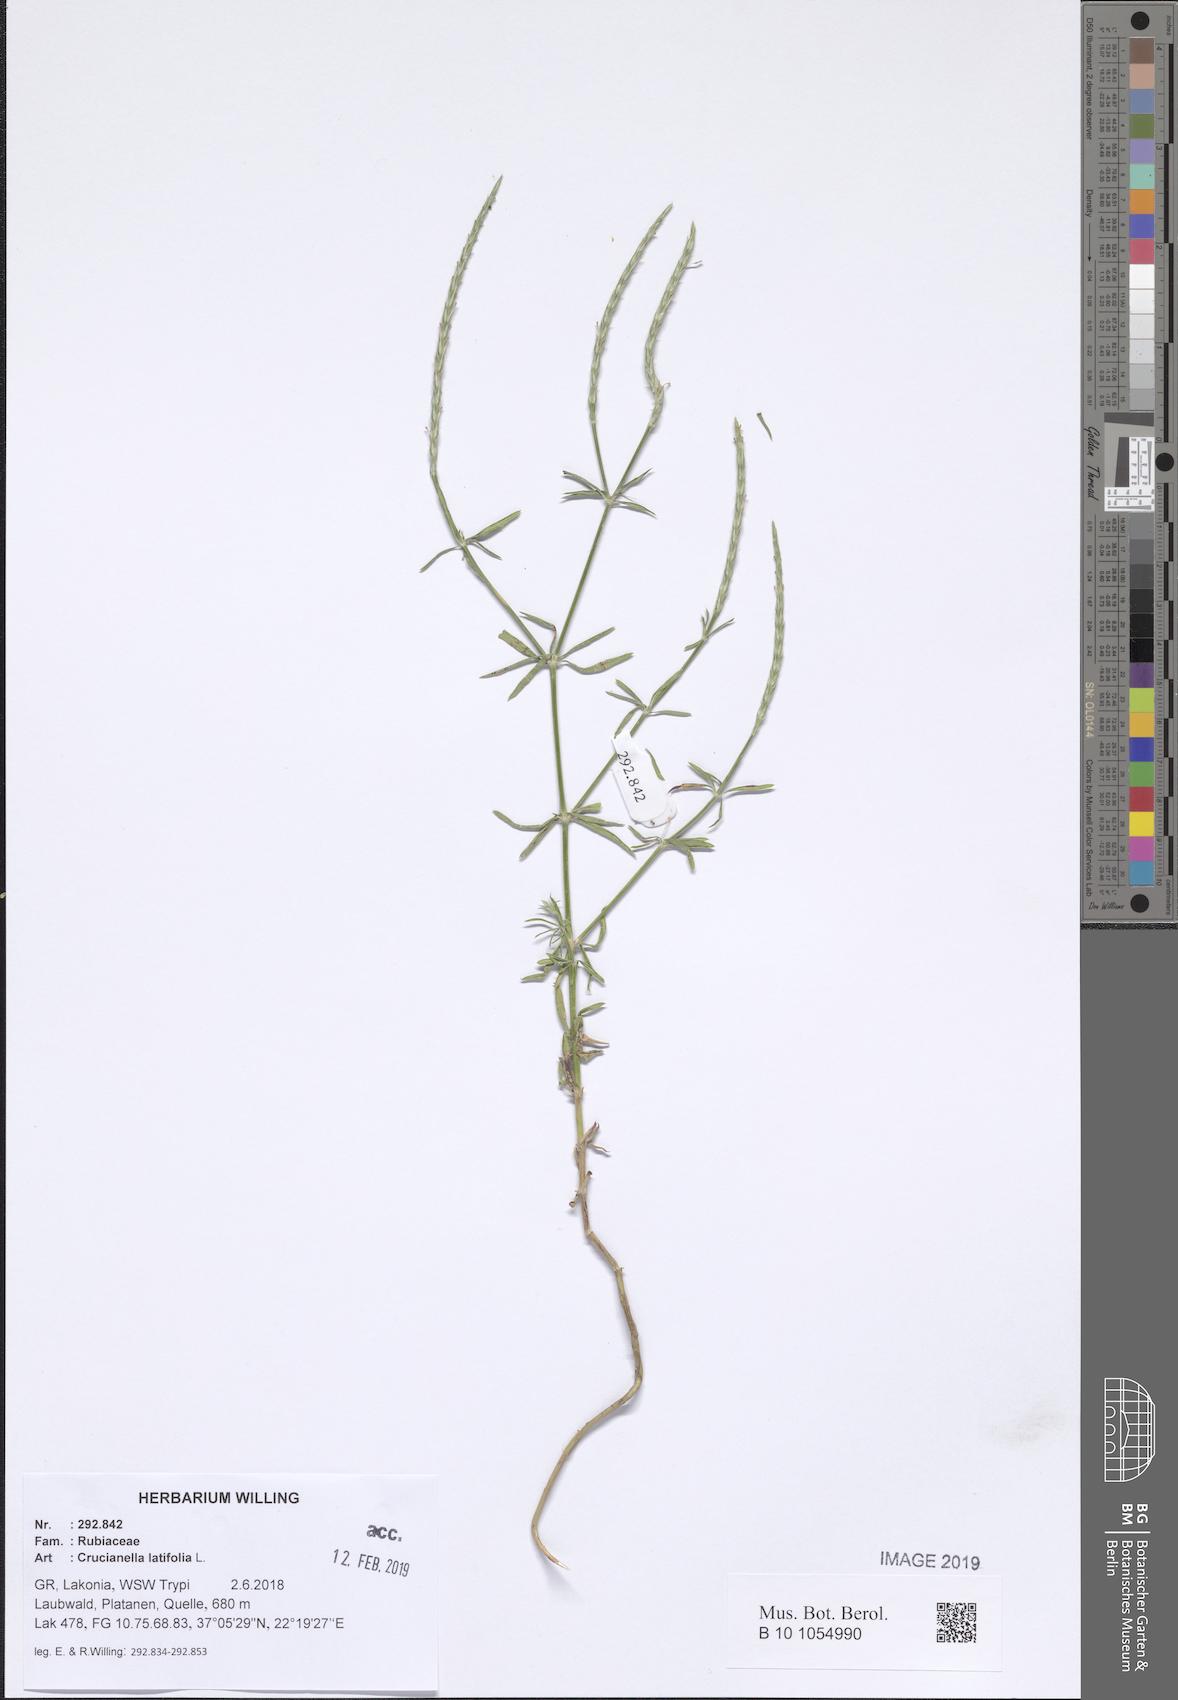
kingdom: Plantae
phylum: Tracheophyta
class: Magnoliopsida
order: Gentianales
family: Rubiaceae
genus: Crucianella
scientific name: Crucianella latifolia
